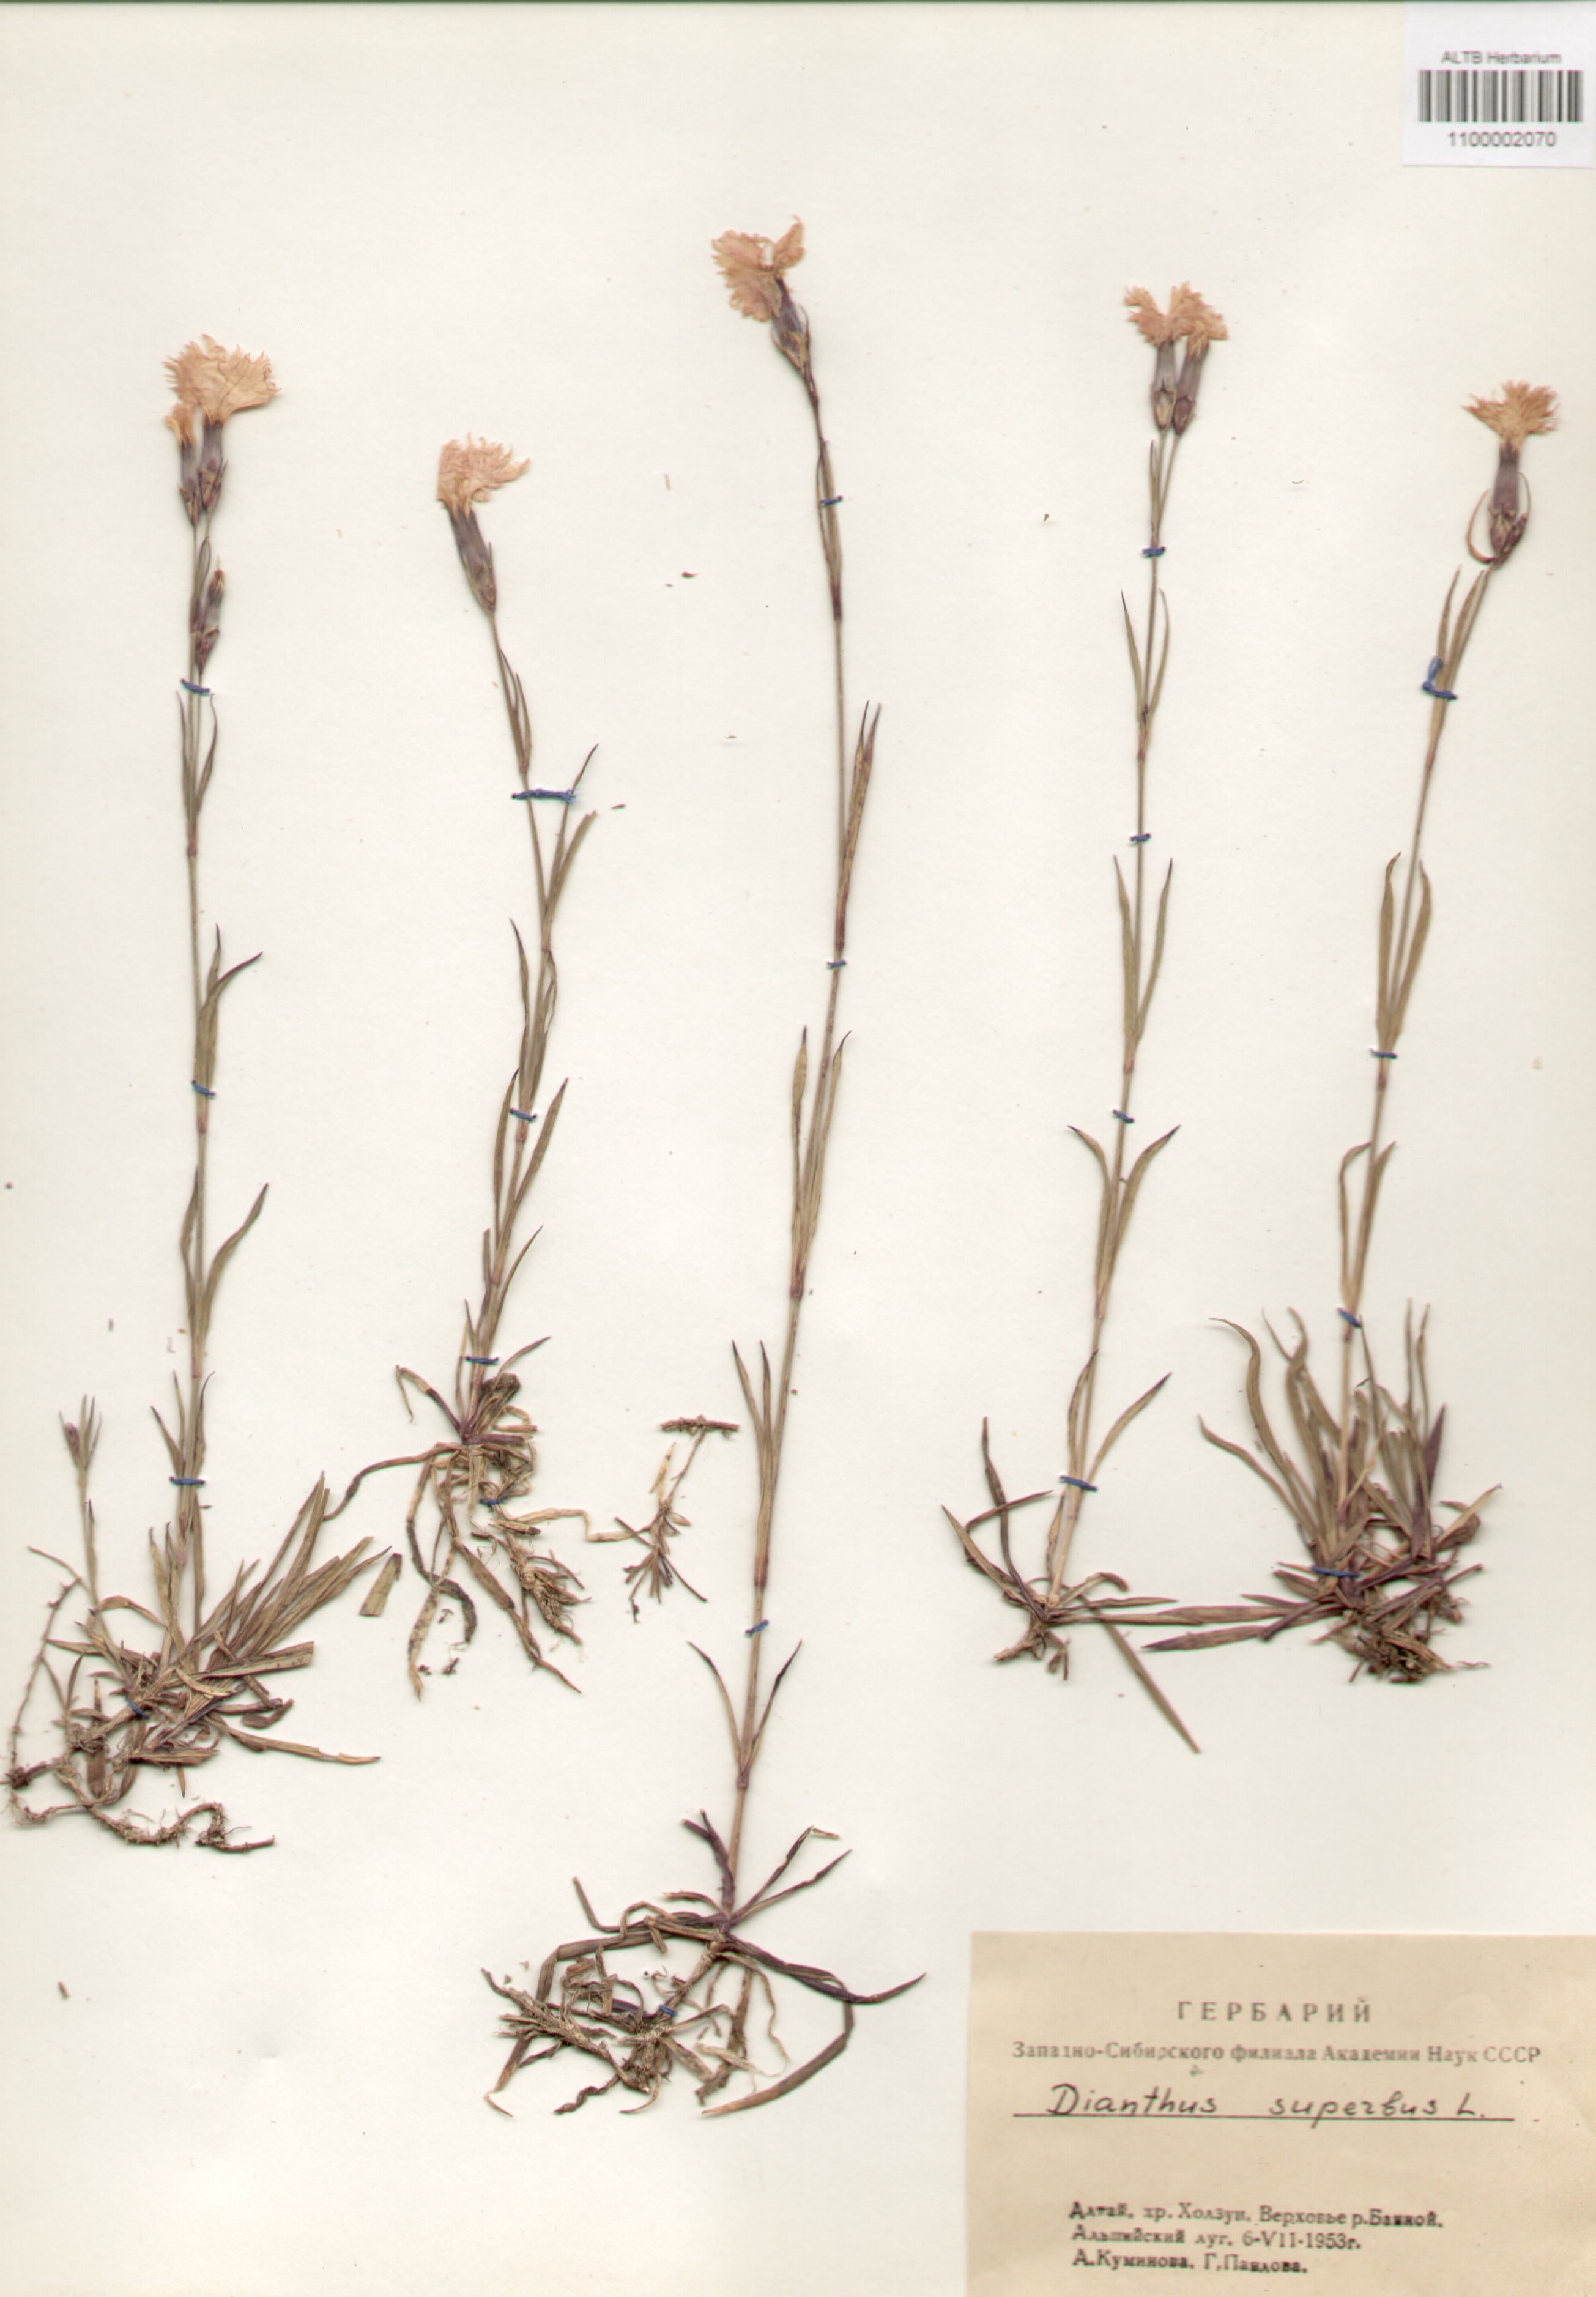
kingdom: Plantae
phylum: Tracheophyta
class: Magnoliopsida
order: Caryophyllales
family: Caryophyllaceae
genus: Dianthus
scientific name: Dianthus superbus
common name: Fringed pink
